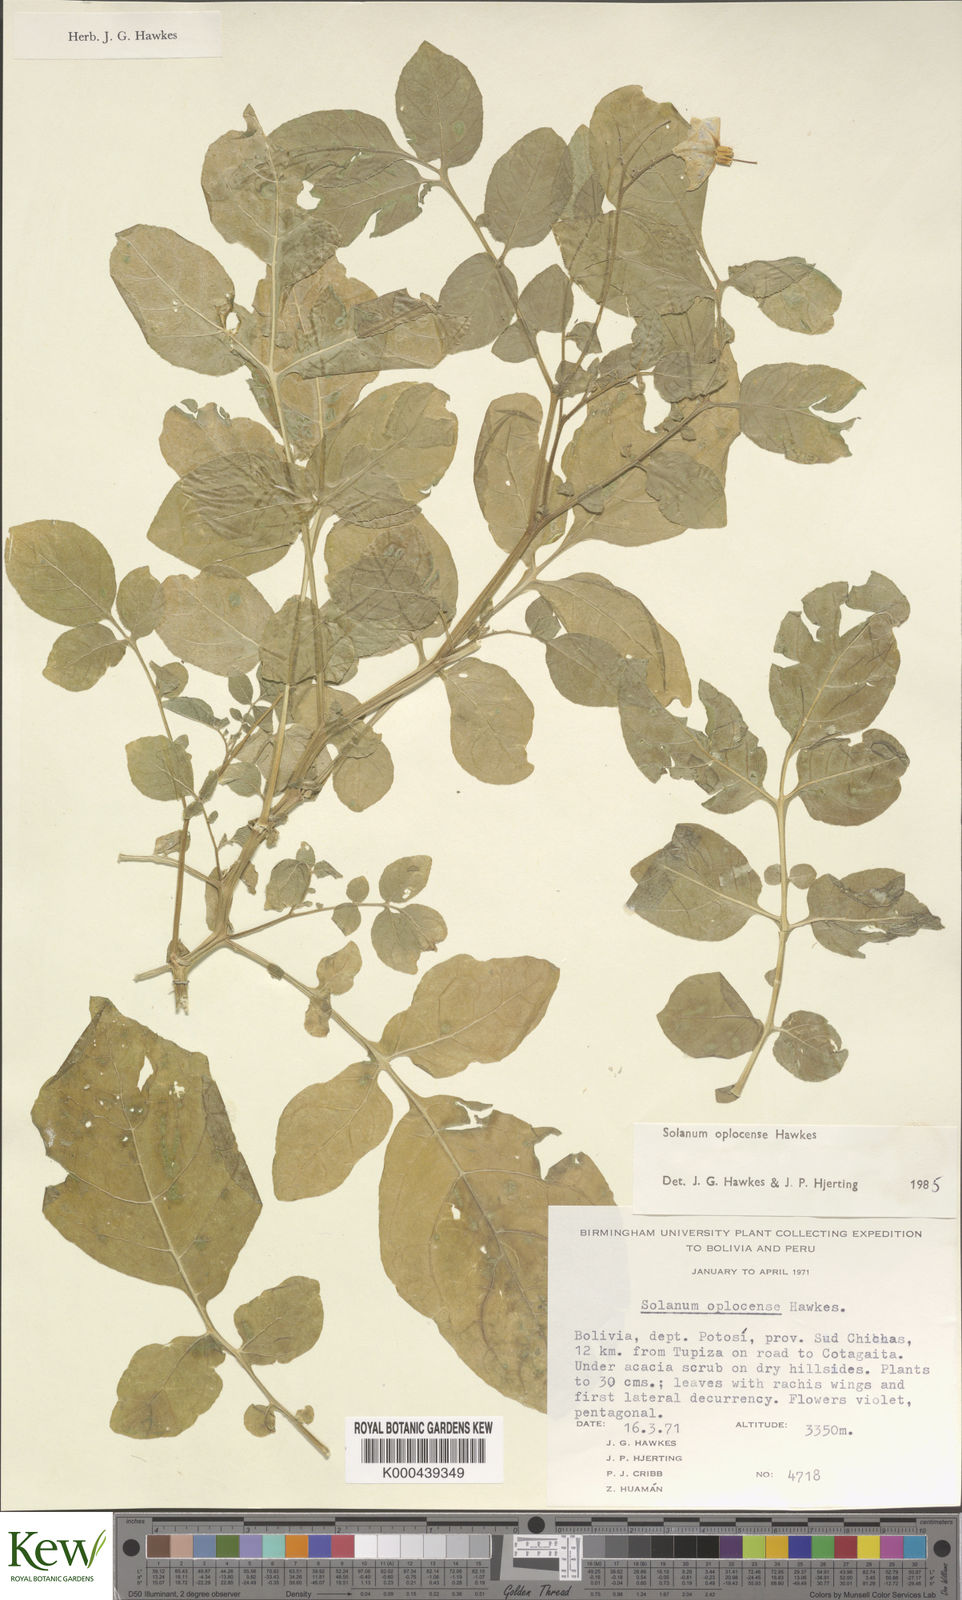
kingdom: Plantae
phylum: Tracheophyta
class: Magnoliopsida
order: Solanales
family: Solanaceae
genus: Solanum
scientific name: Solanum brevicaule
